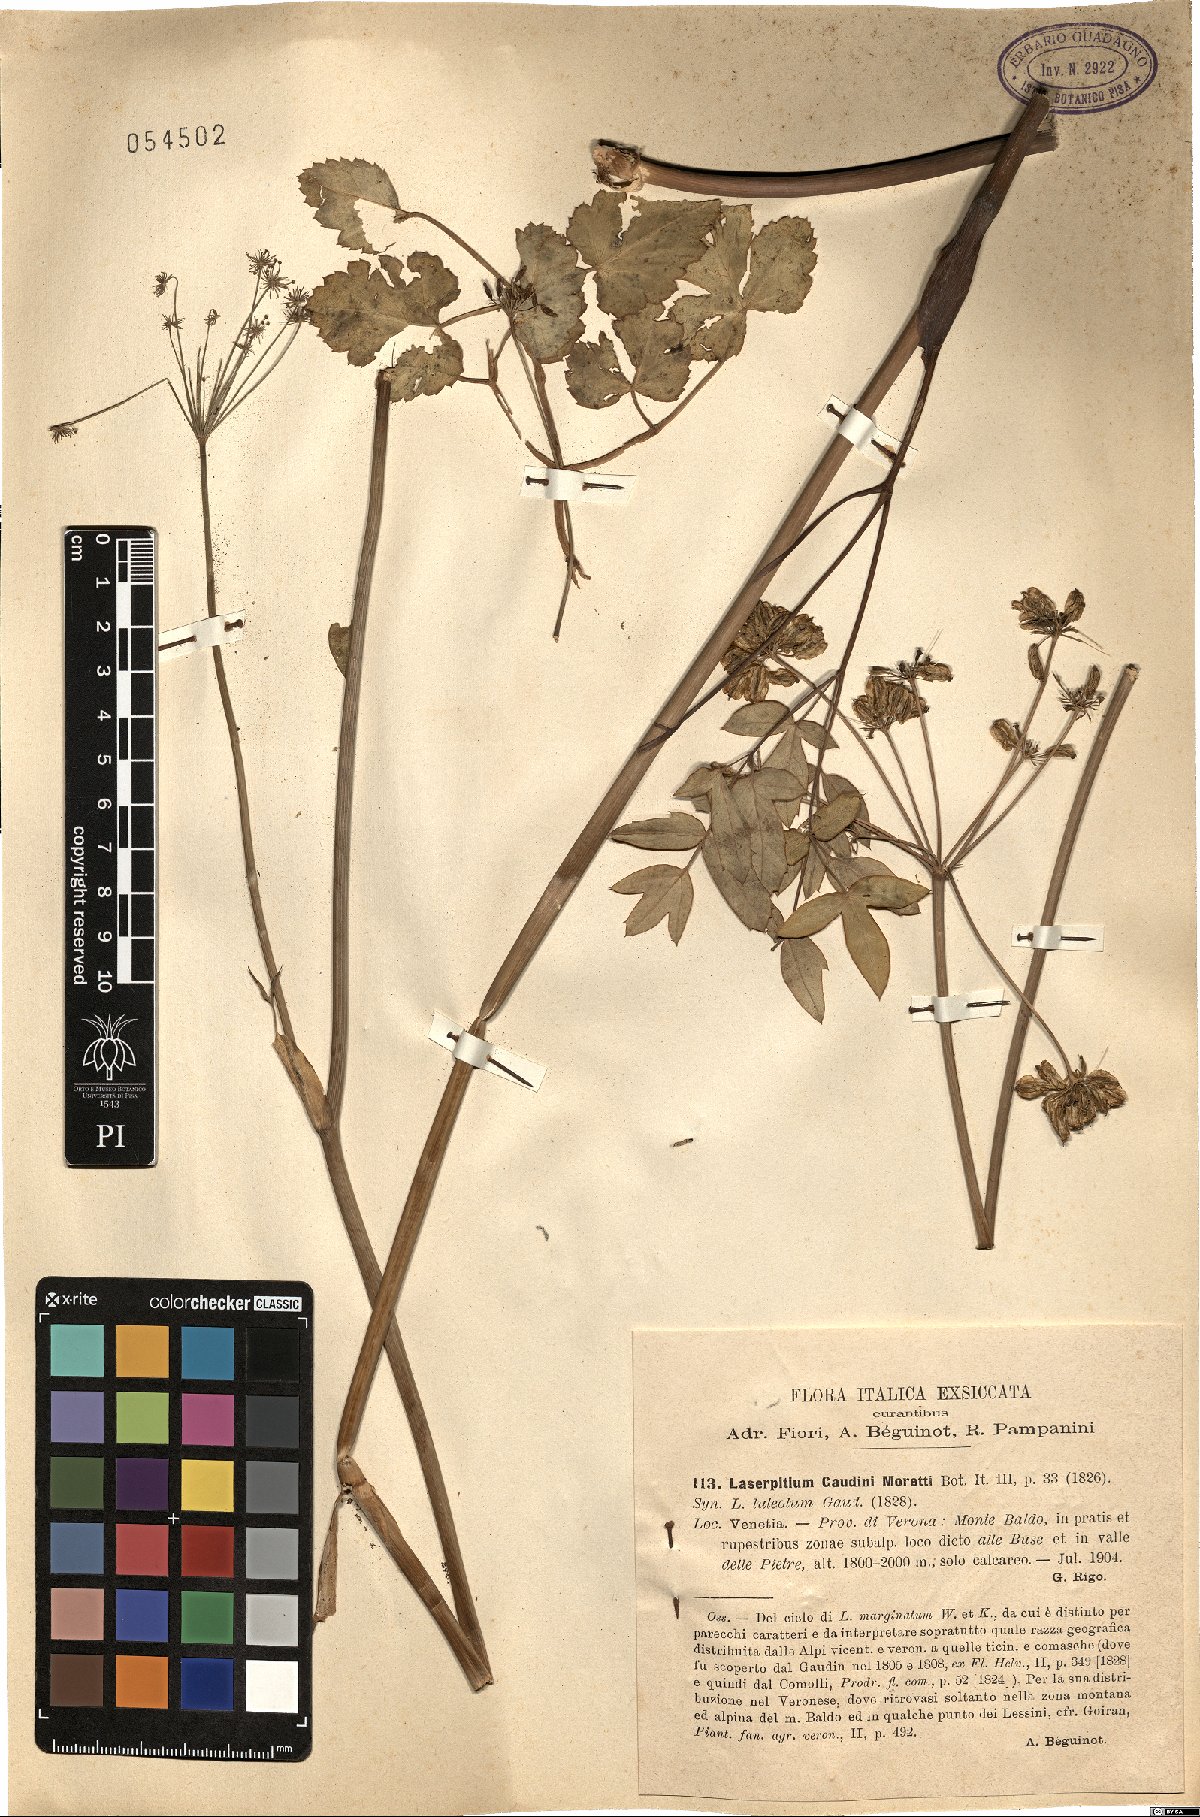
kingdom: Plantae
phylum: Tracheophyta
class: Magnoliopsida
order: Apiales
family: Apiaceae
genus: Laserpitium
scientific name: Laserpitium krapffii
